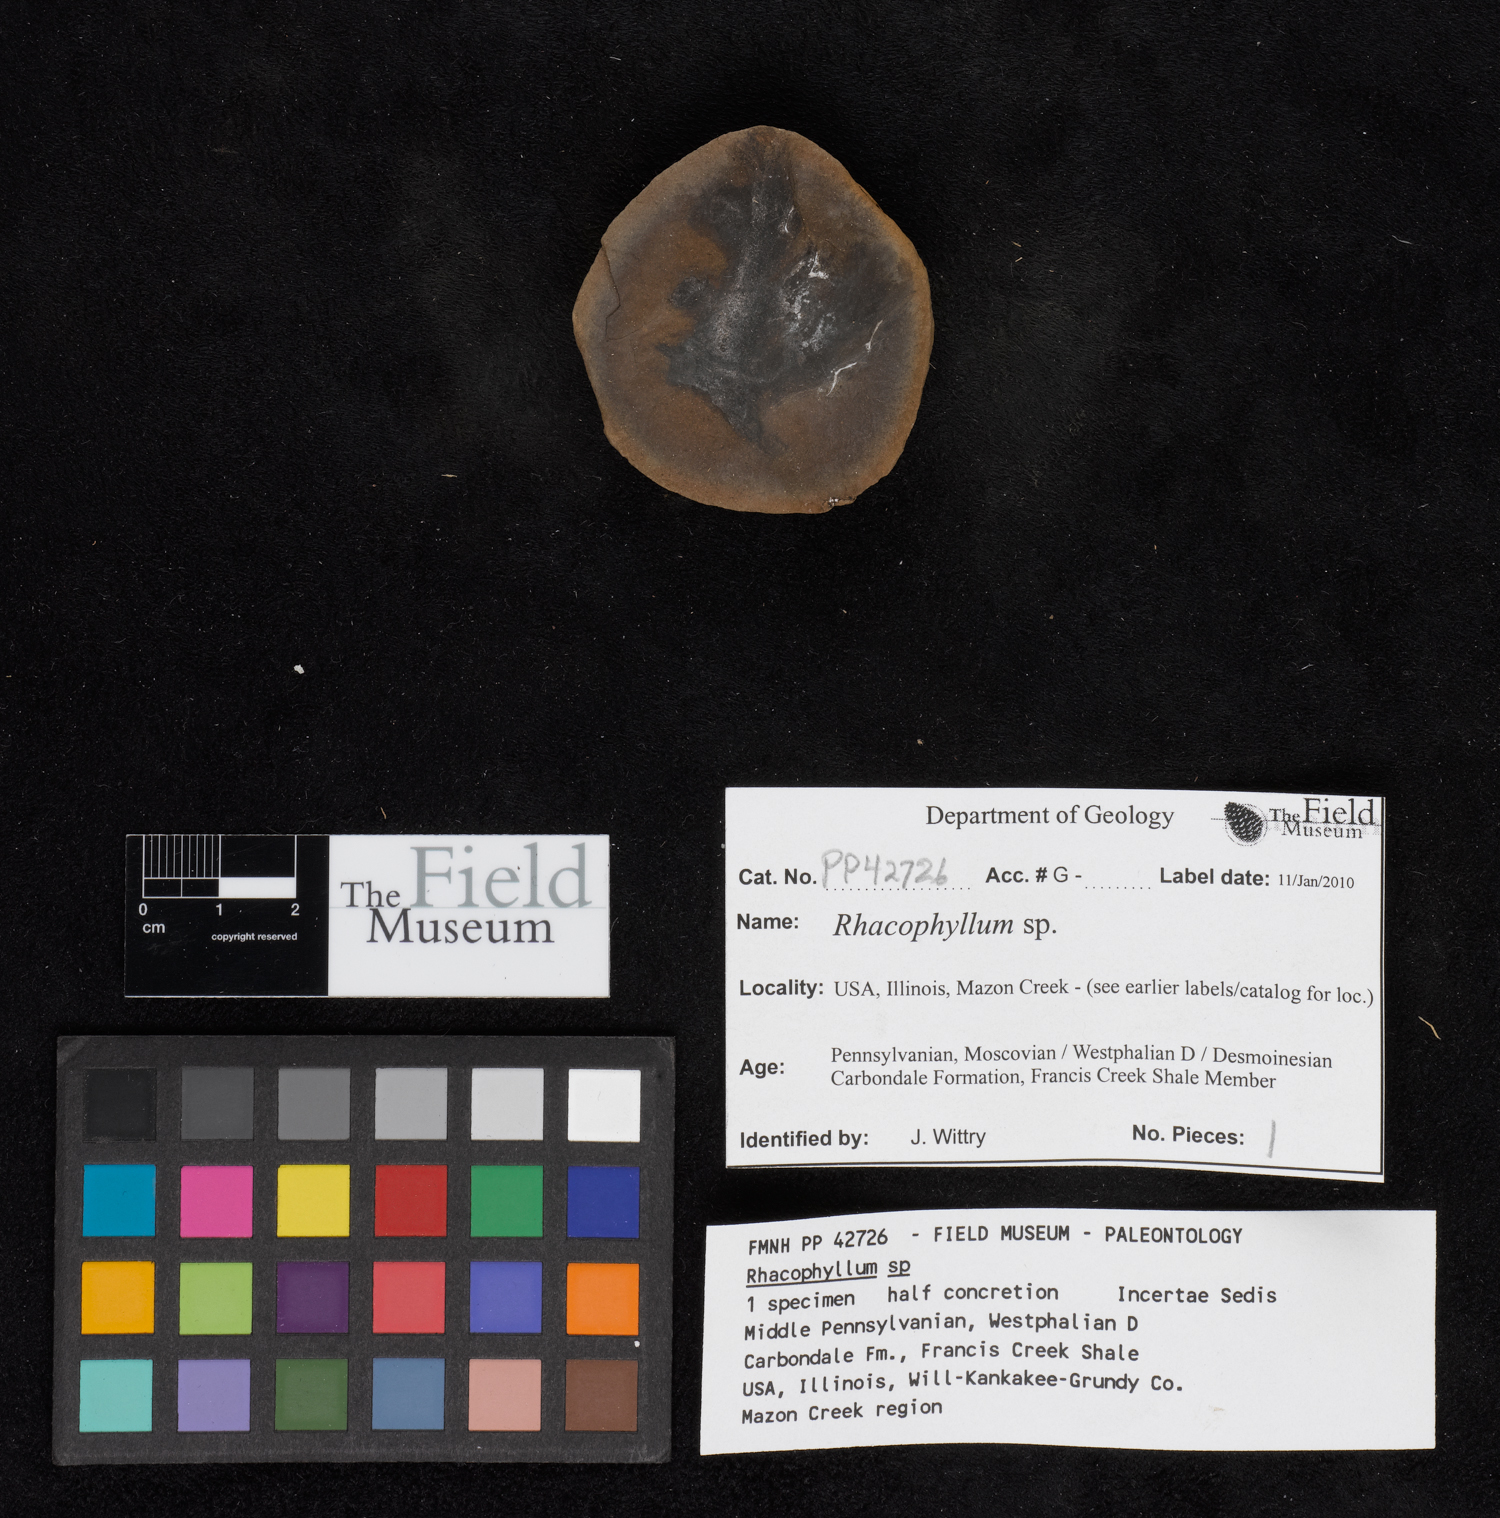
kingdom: Plantae
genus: Rhacophyllum
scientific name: Rhacophyllum
